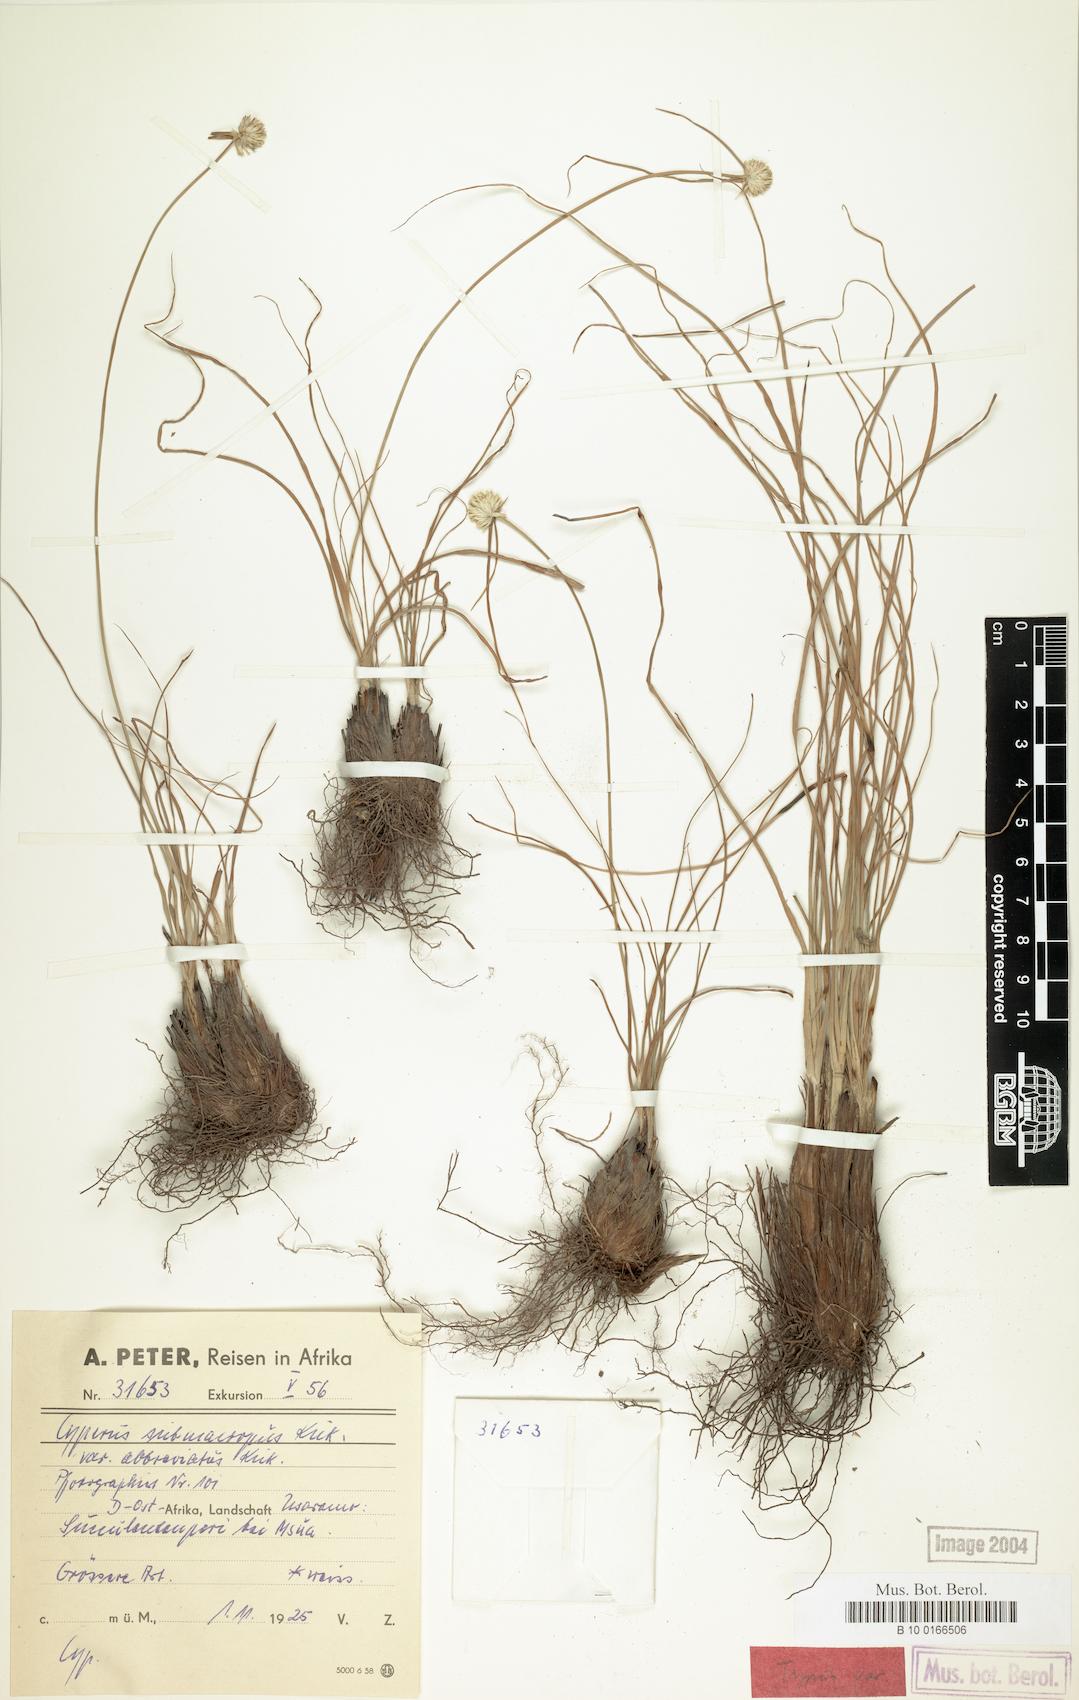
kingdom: Plantae
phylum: Tracheophyta
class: Liliopsida
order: Poales
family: Cyperaceae
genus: Cyperus
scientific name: Cyperus mollipes
